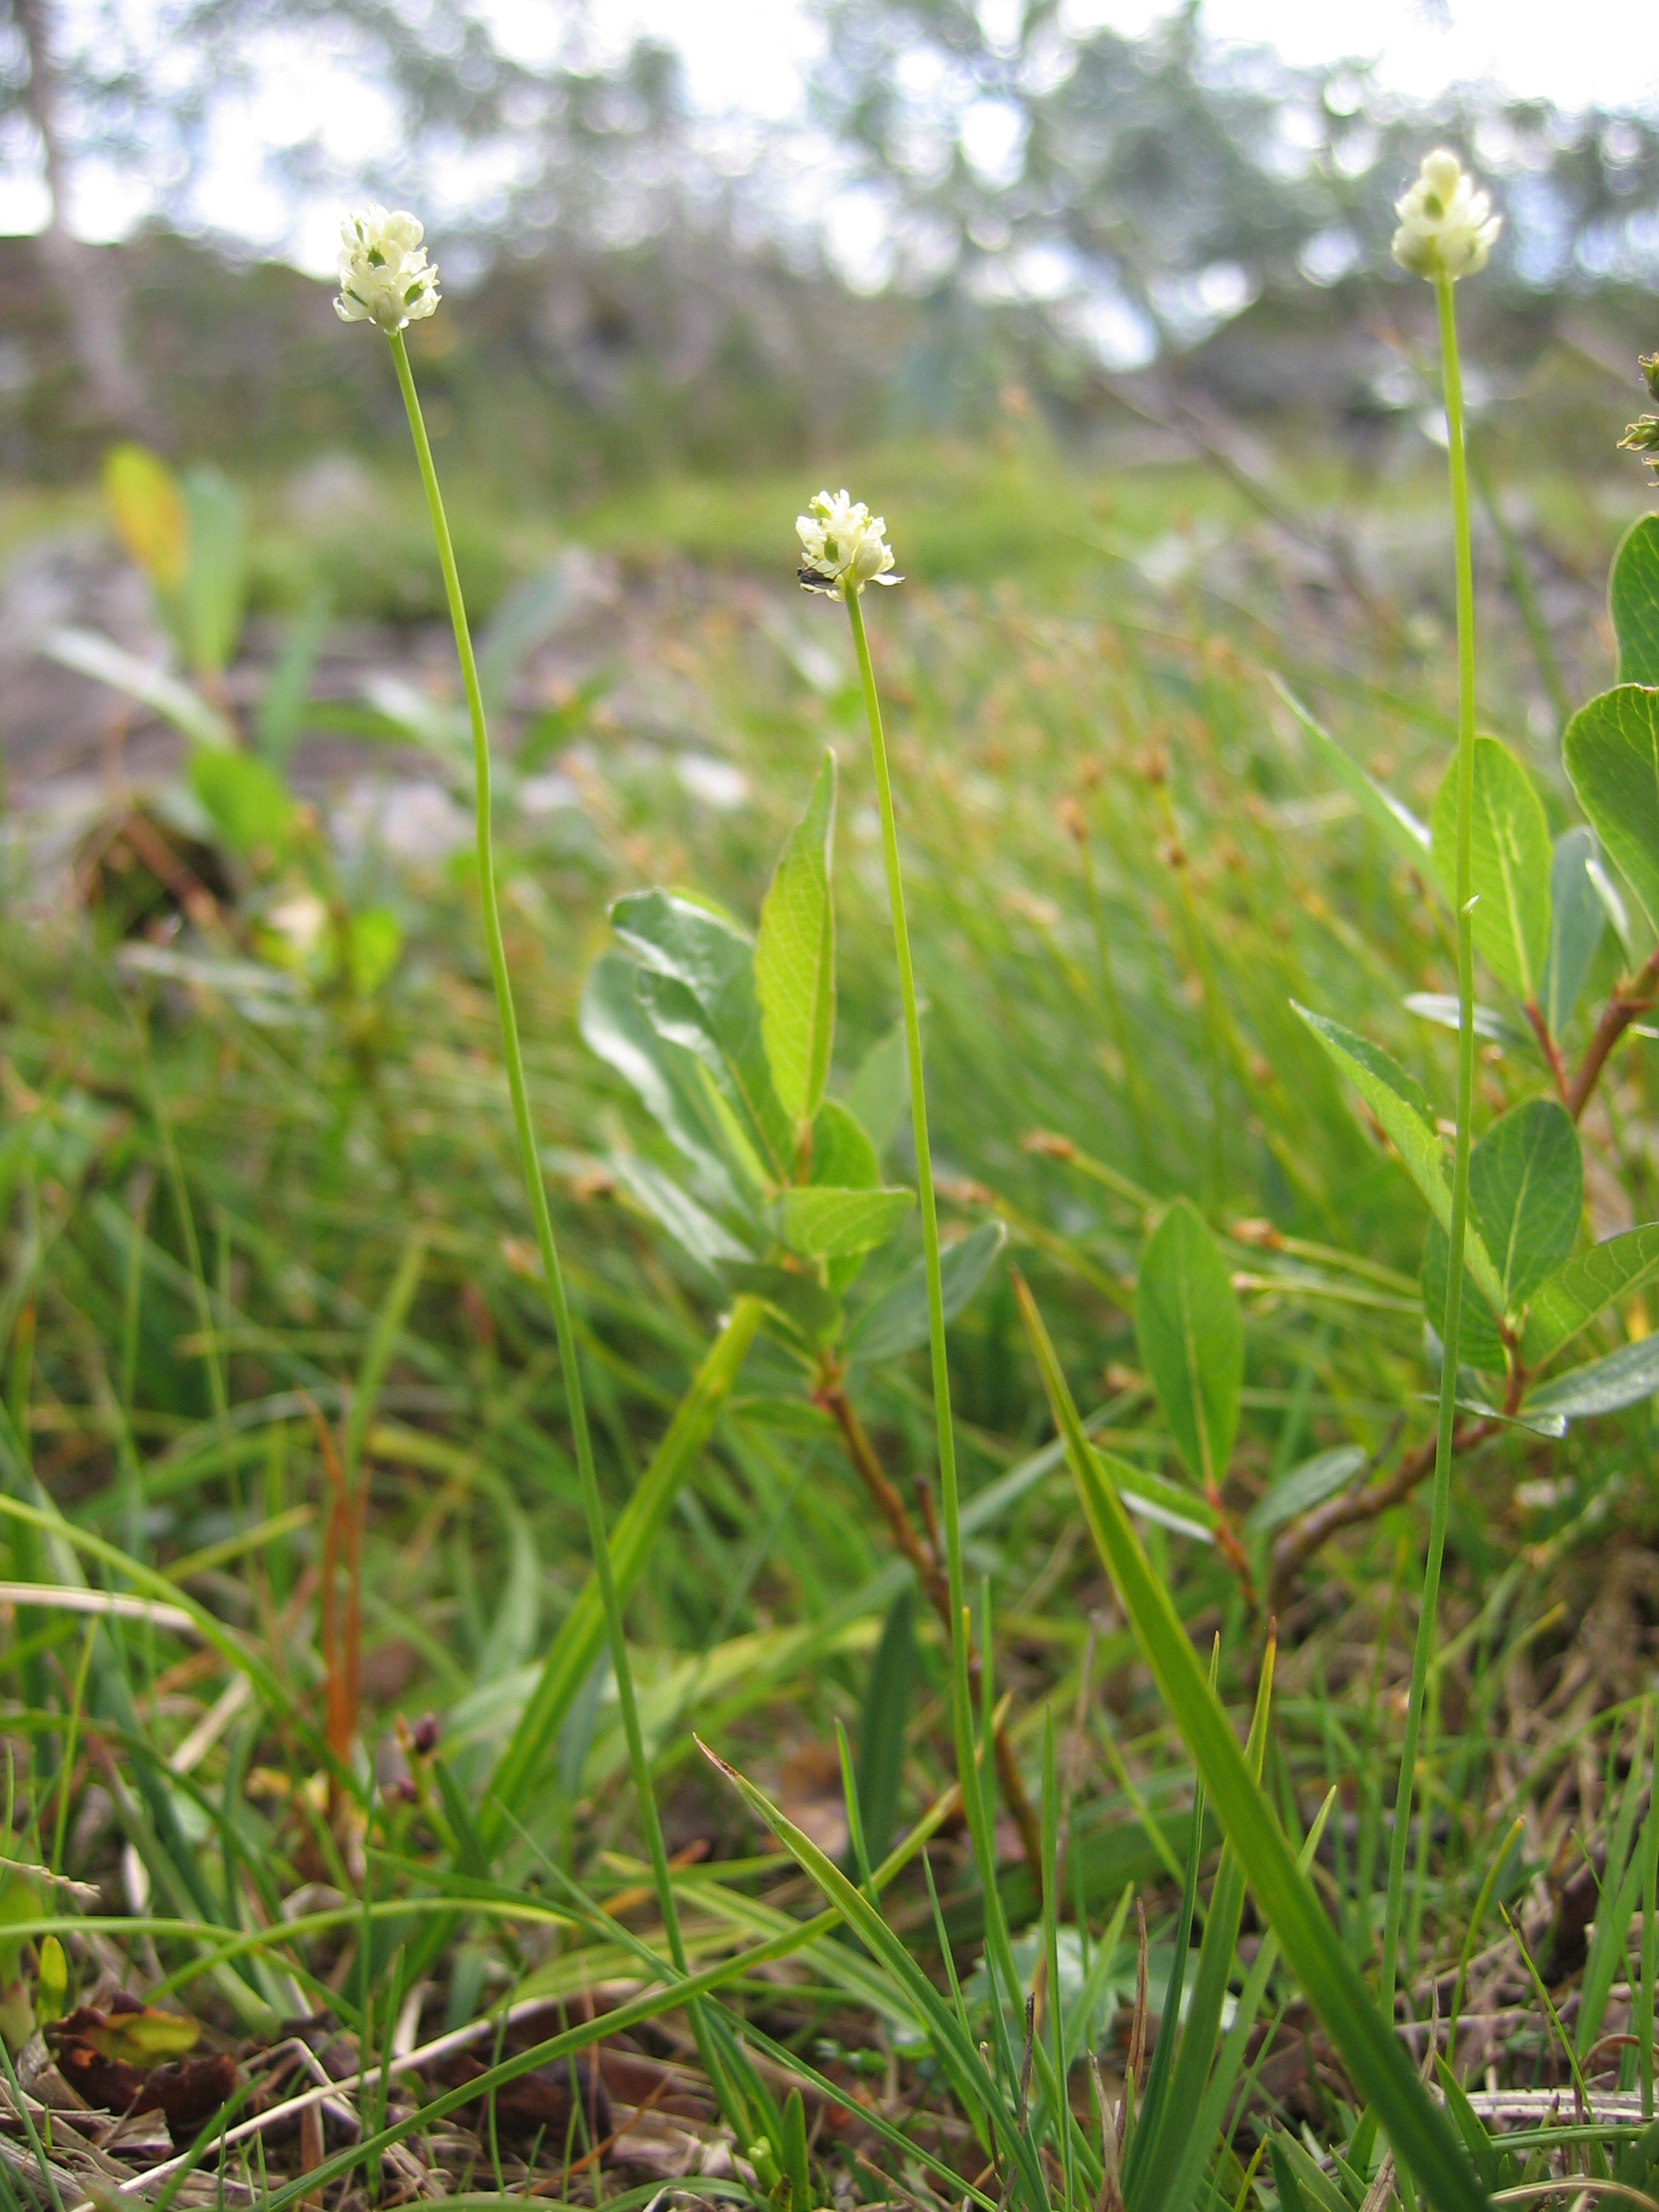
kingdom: Plantae
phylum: Tracheophyta
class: Liliopsida
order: Alismatales
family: Tofieldiaceae
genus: Tofieldia
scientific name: Tofieldia pusilla
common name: Scottish false asphodel
